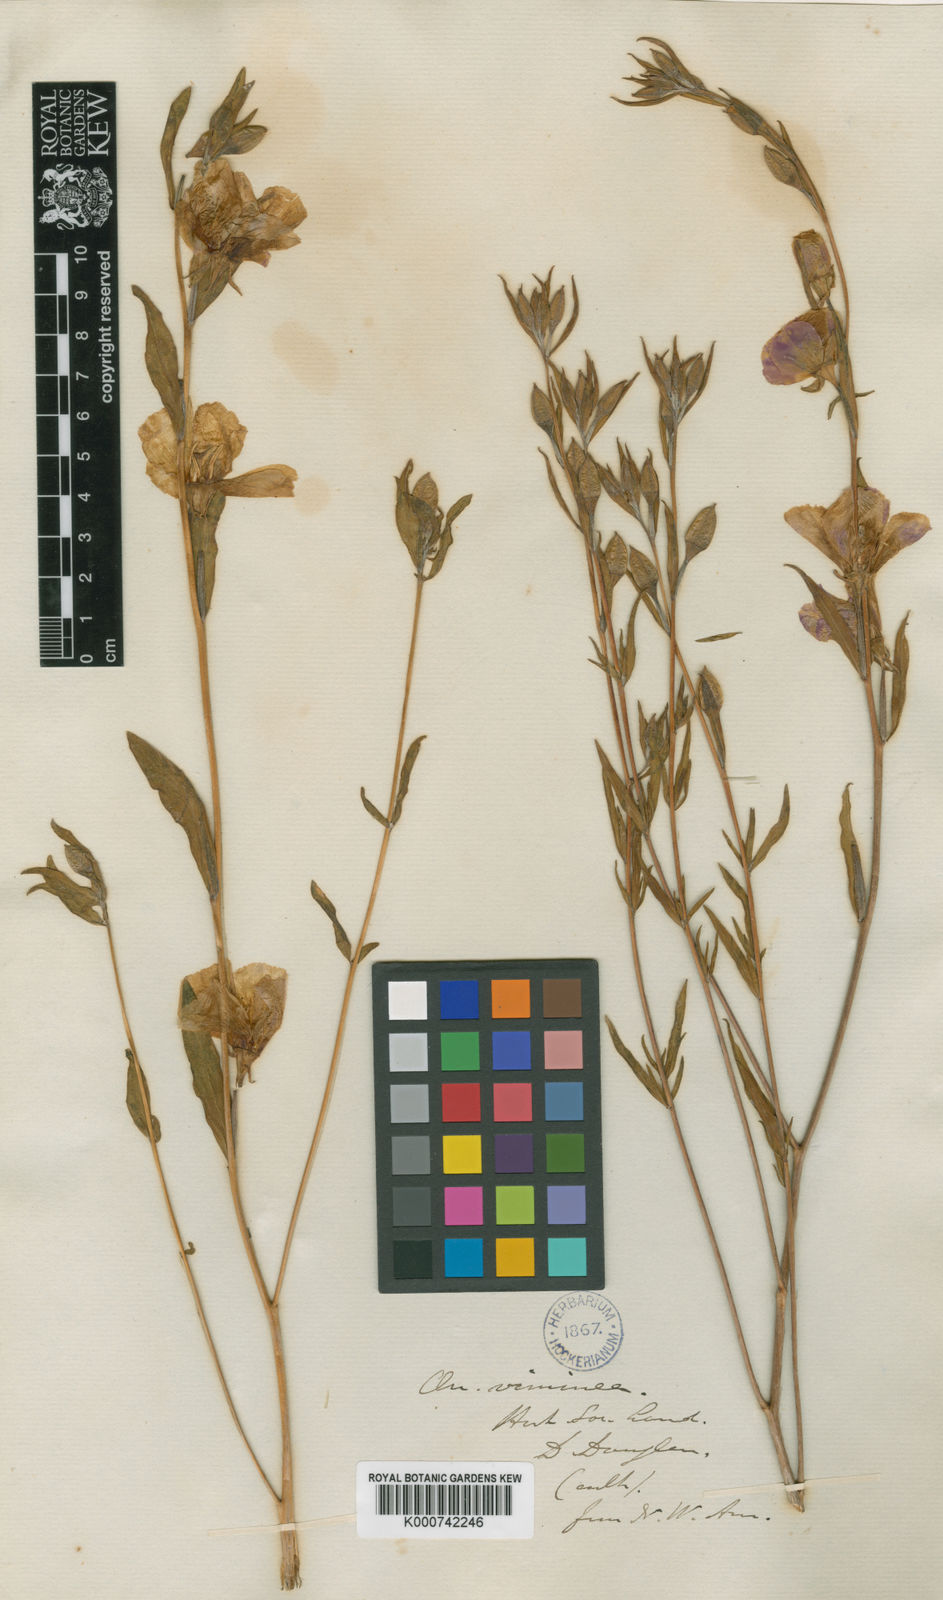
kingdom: Plantae
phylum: Tracheophyta
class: Magnoliopsida
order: Myrtales
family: Onagraceae
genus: Clarkia
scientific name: Clarkia purpurea
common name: Purple clarkia
